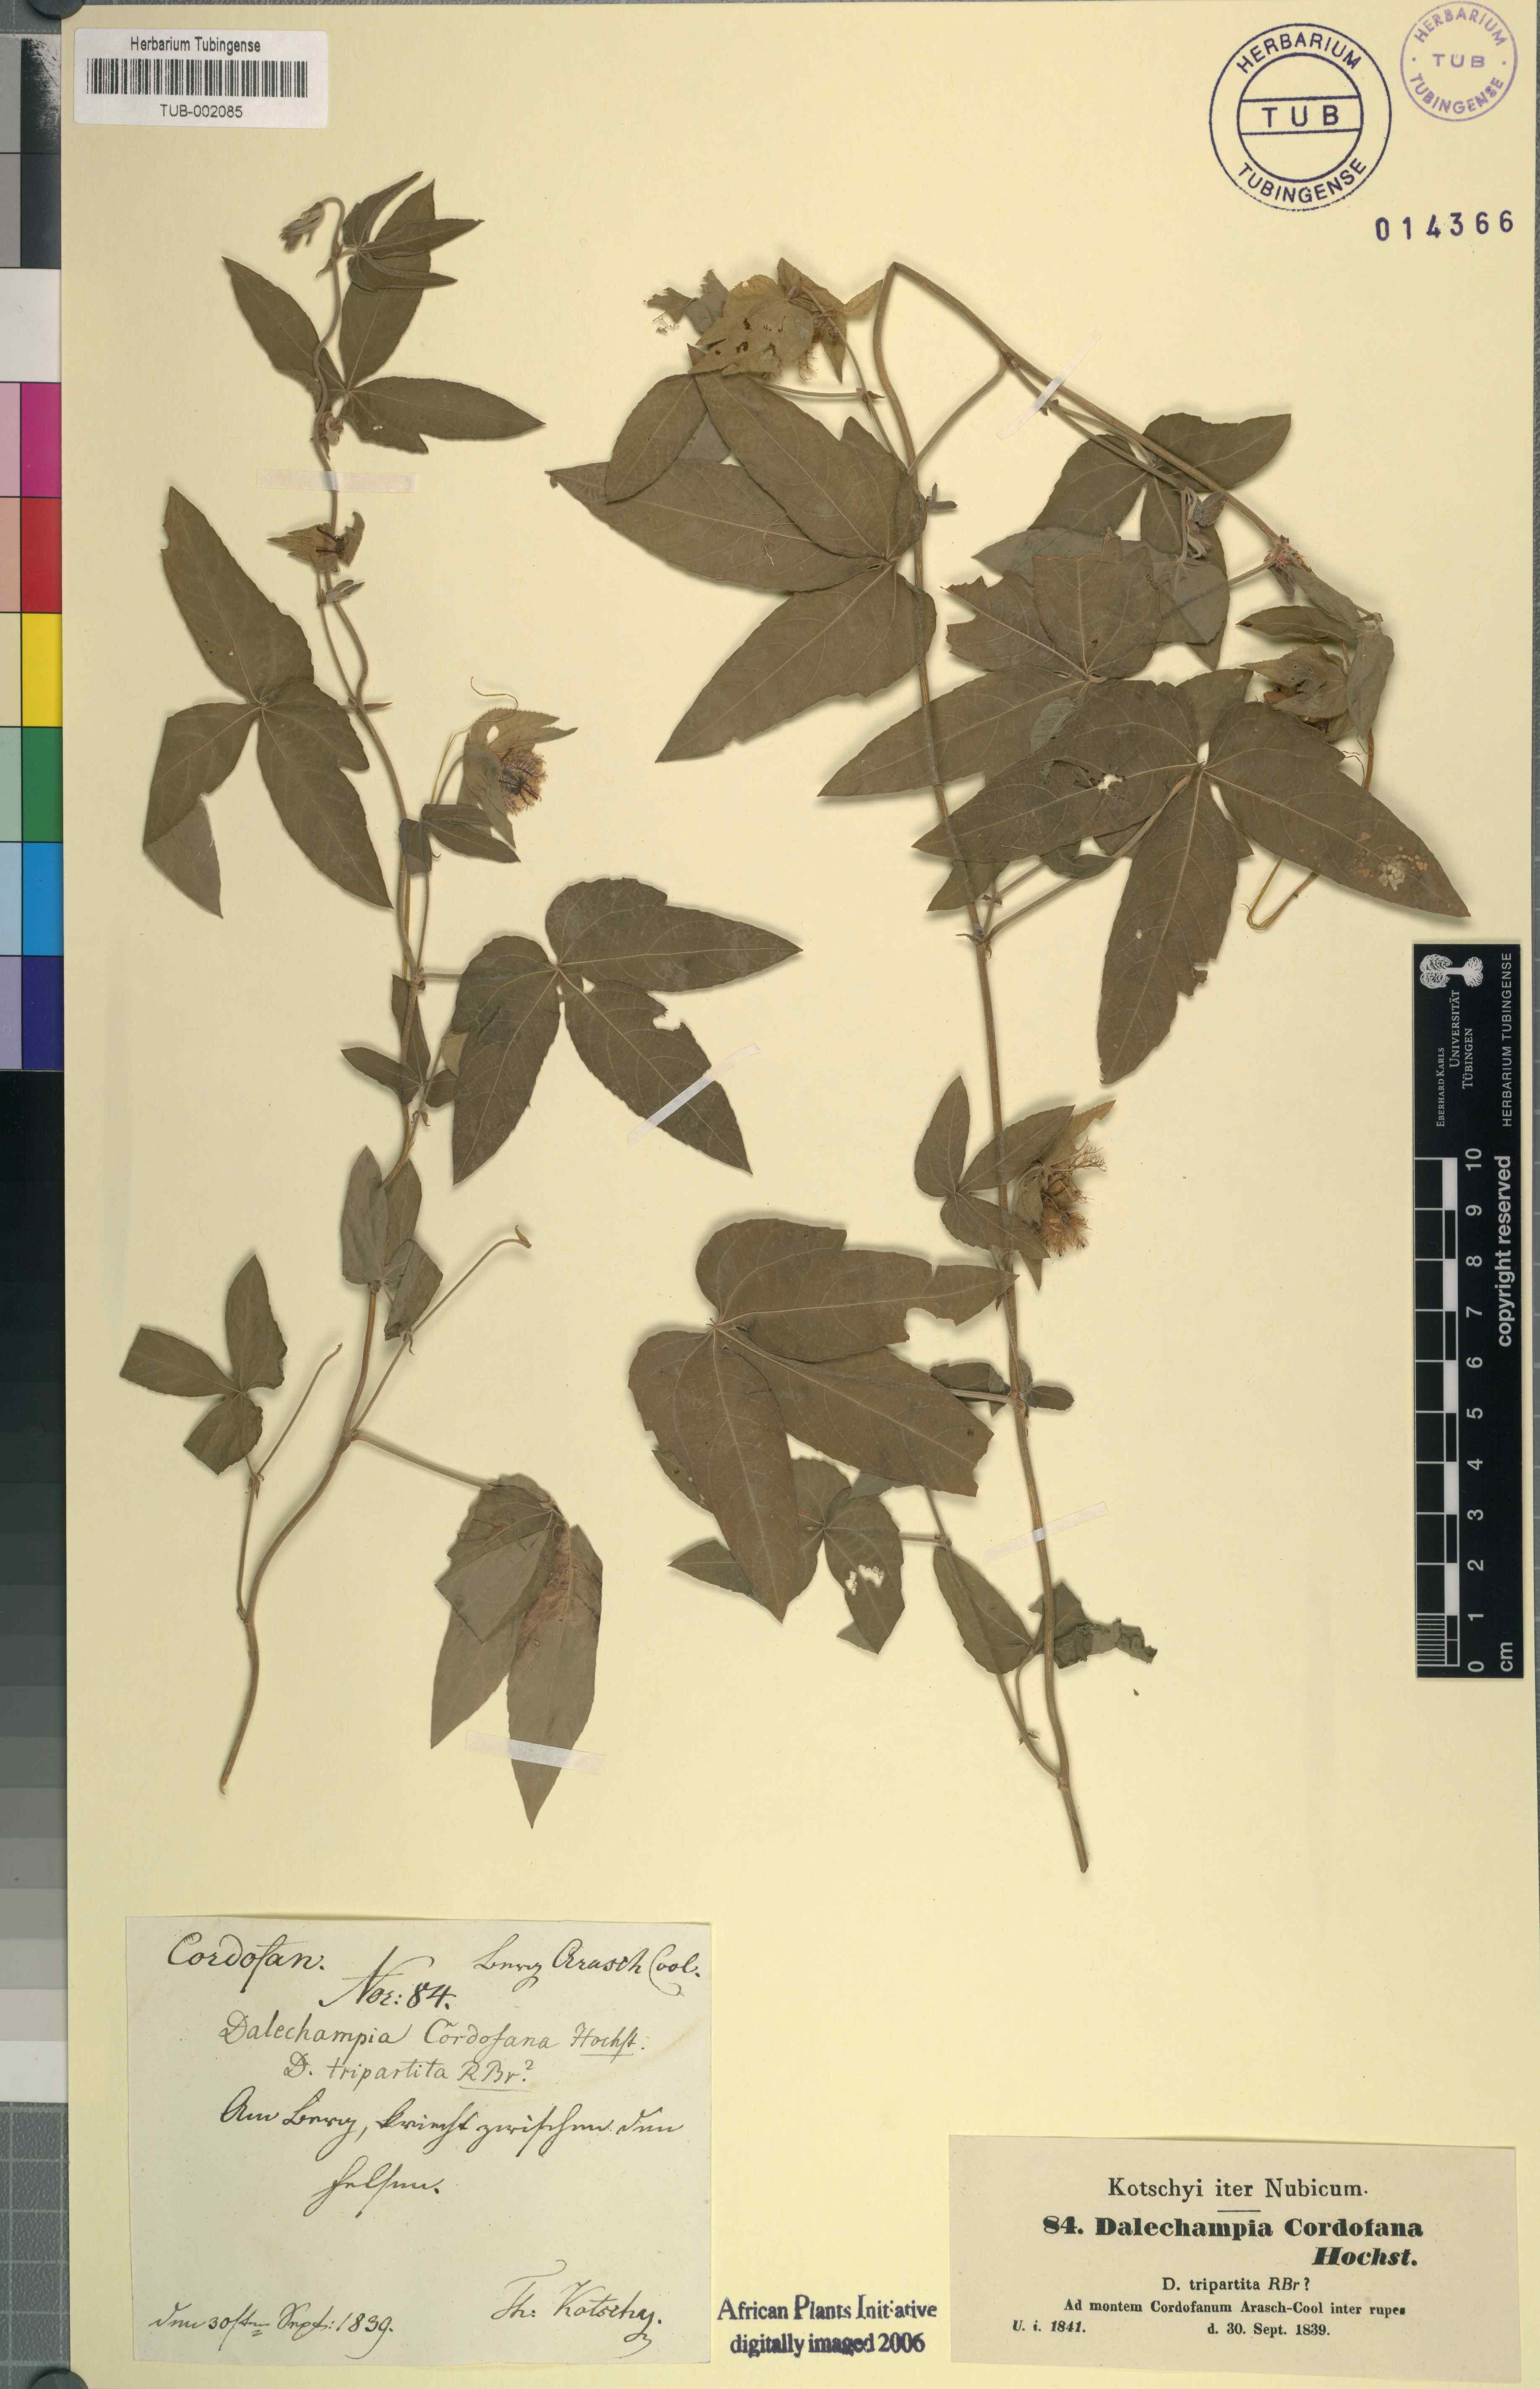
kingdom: Plantae
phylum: Tracheophyta
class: Magnoliopsida
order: Malpighiales
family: Euphorbiaceae
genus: Dalechampia
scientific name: Dalechampia scandens
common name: Spurgecreeper
